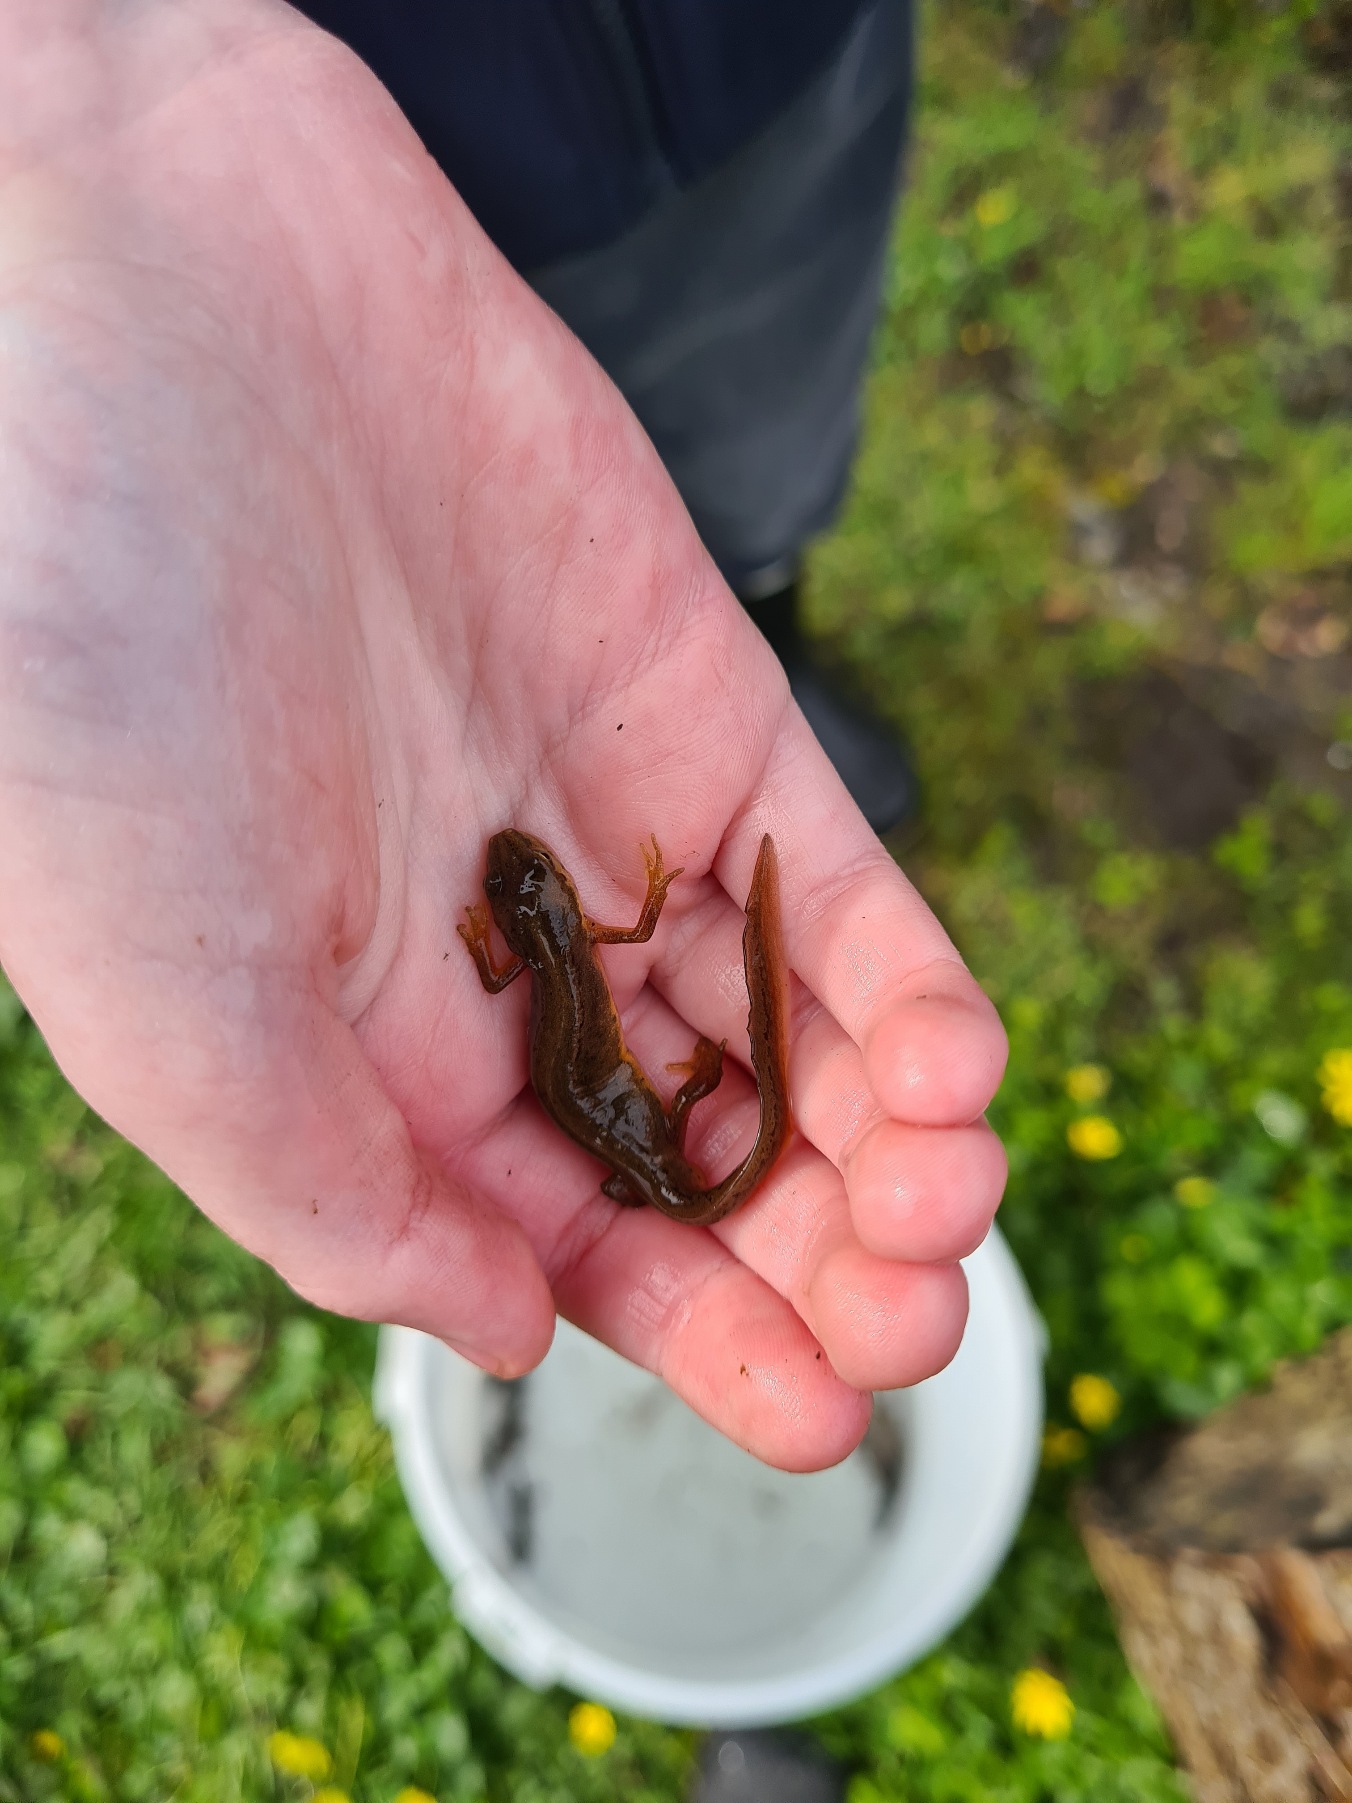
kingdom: Animalia
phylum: Chordata
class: Amphibia
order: Caudata
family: Salamandridae
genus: Lissotriton
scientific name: Lissotriton vulgaris
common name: Lille vandsalamander
